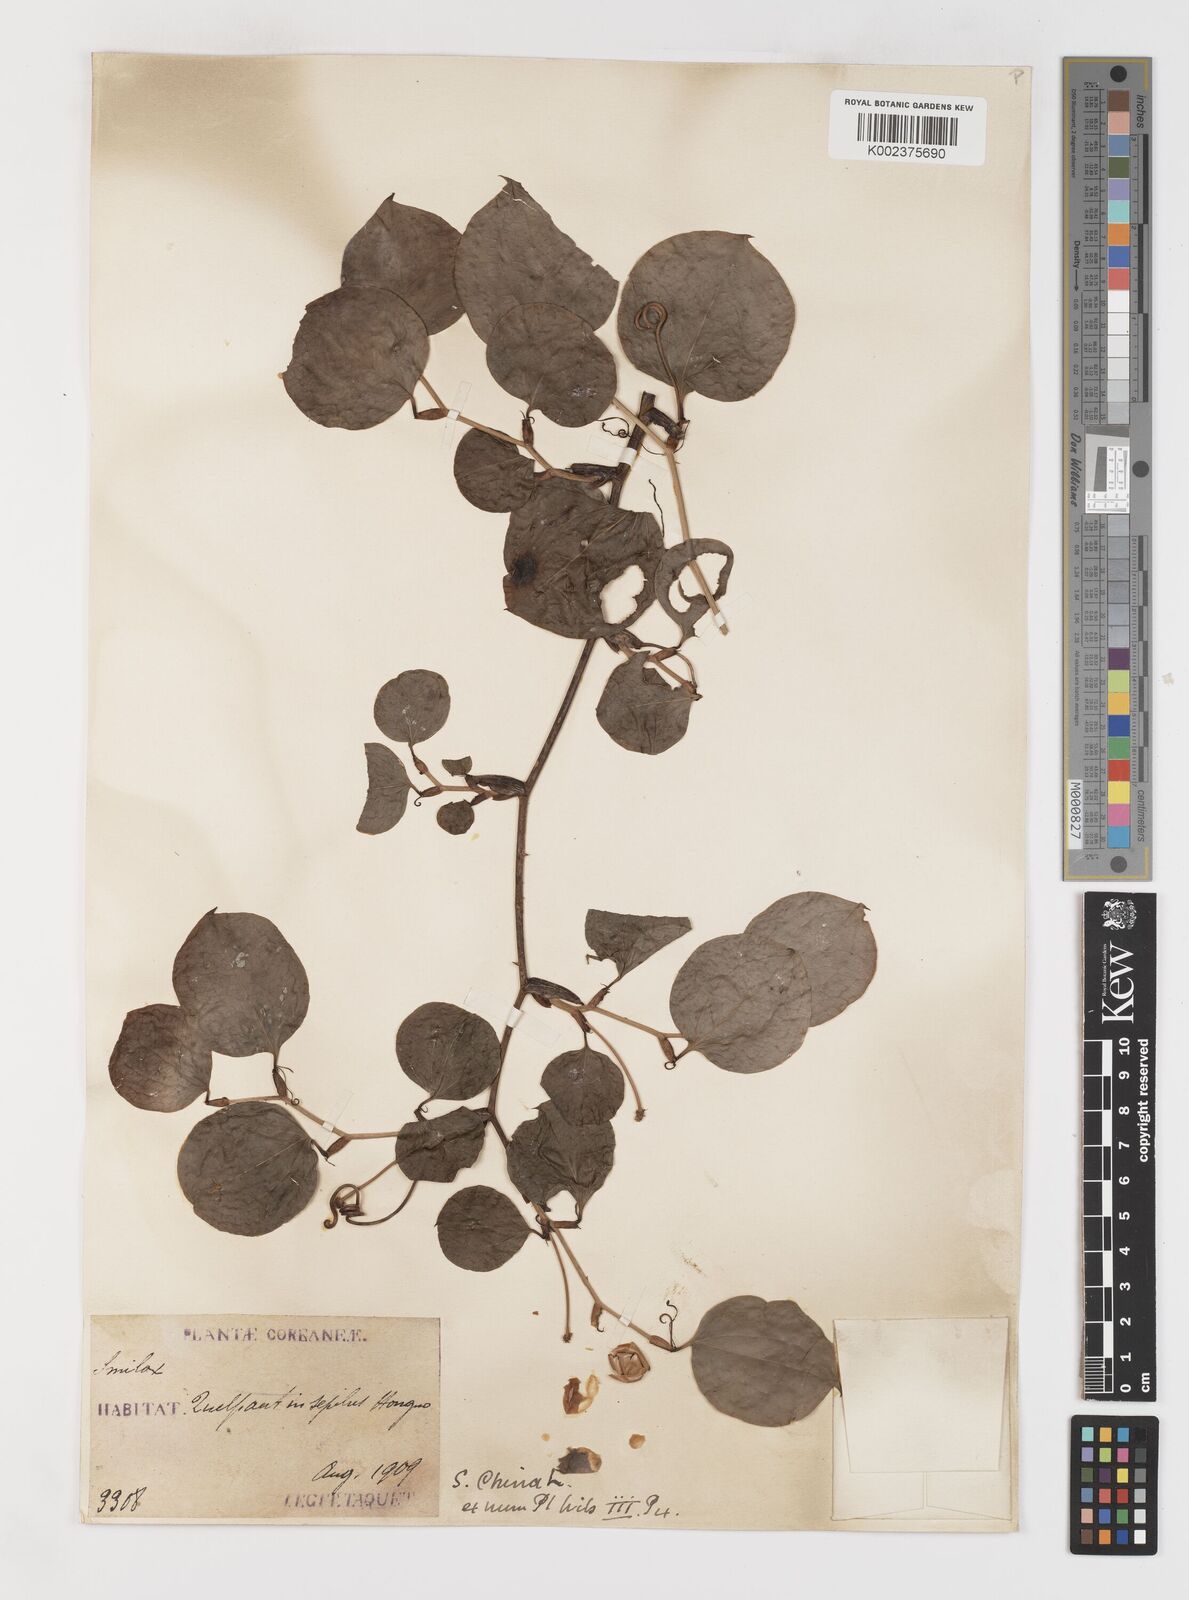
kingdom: Plantae
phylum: Tracheophyta
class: Liliopsida
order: Liliales
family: Smilacaceae
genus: Smilax
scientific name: Smilax china
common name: Chinaroot
